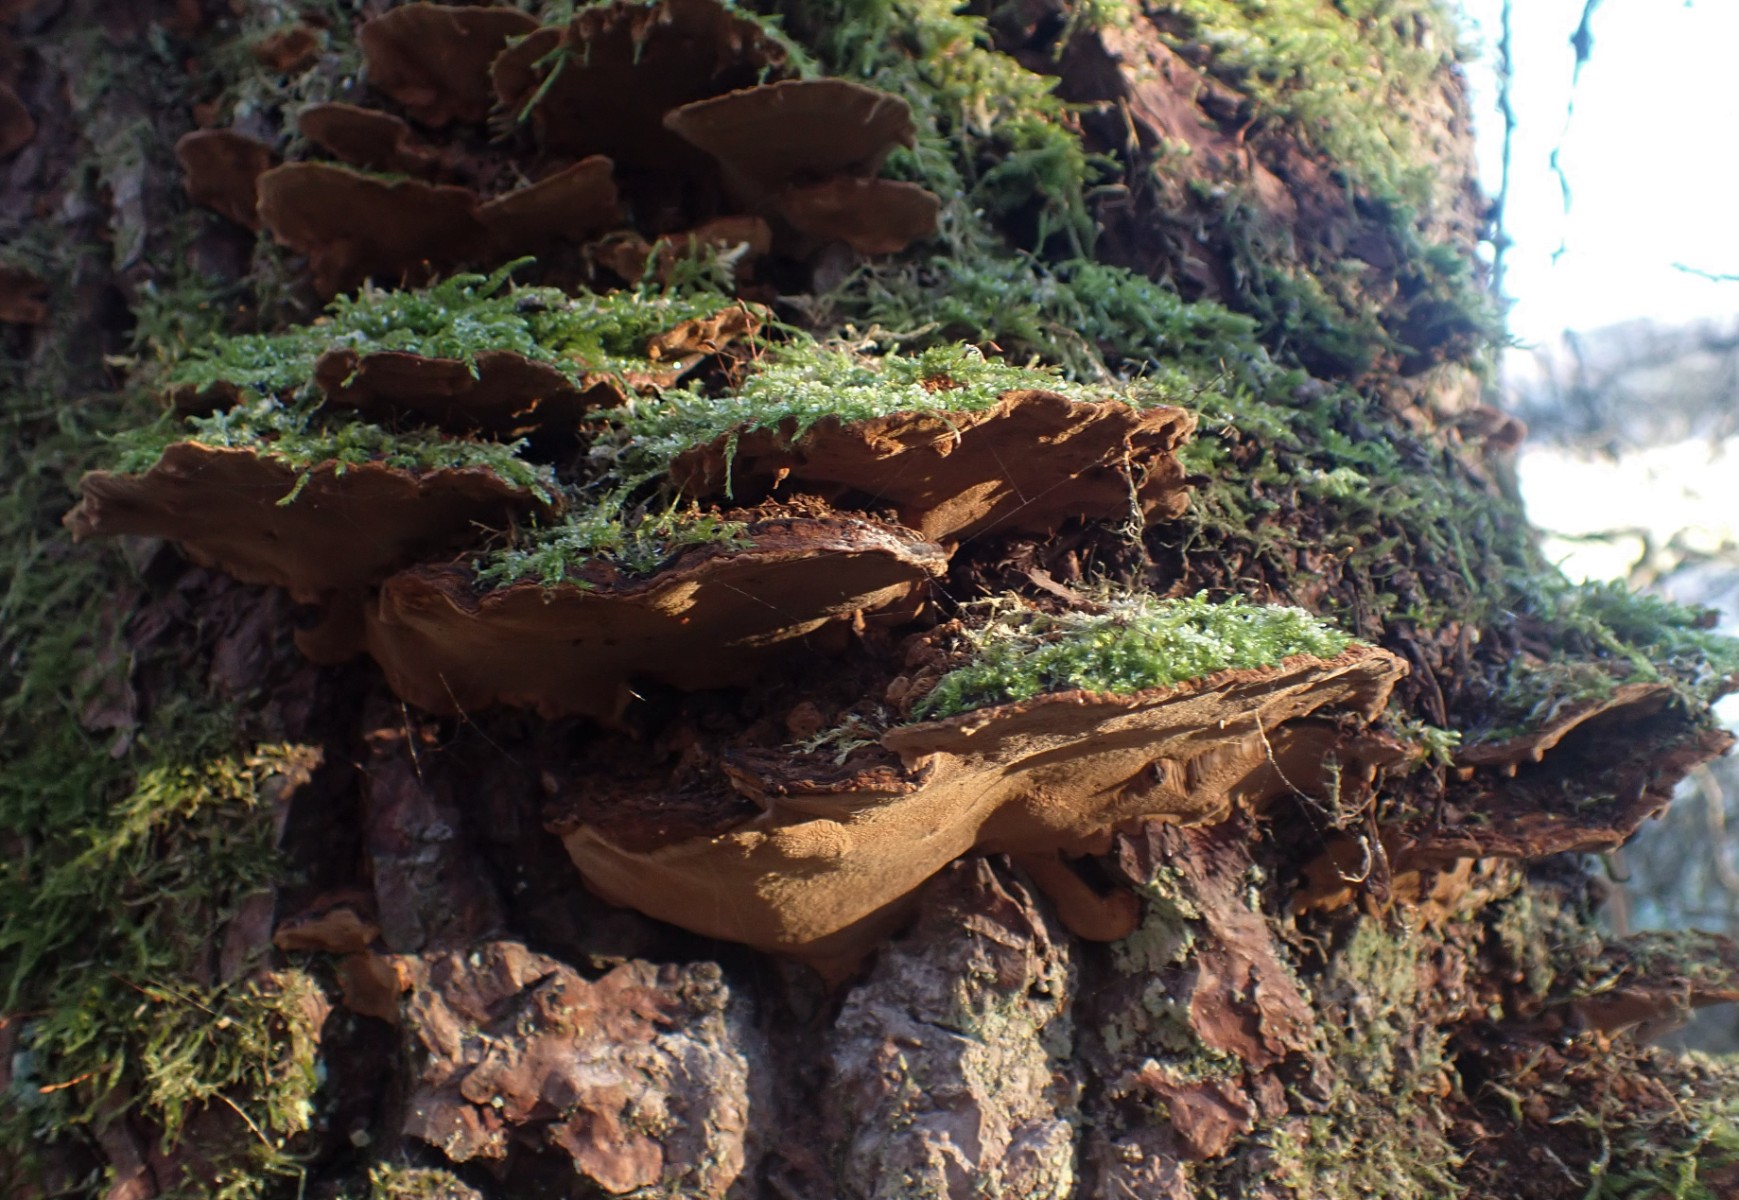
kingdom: Fungi
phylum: Basidiomycota
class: Agaricomycetes
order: Hymenochaetales
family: Hymenochaetaceae
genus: Phellinopsis
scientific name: Phellinopsis conchata
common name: pile-ildporesvamp
